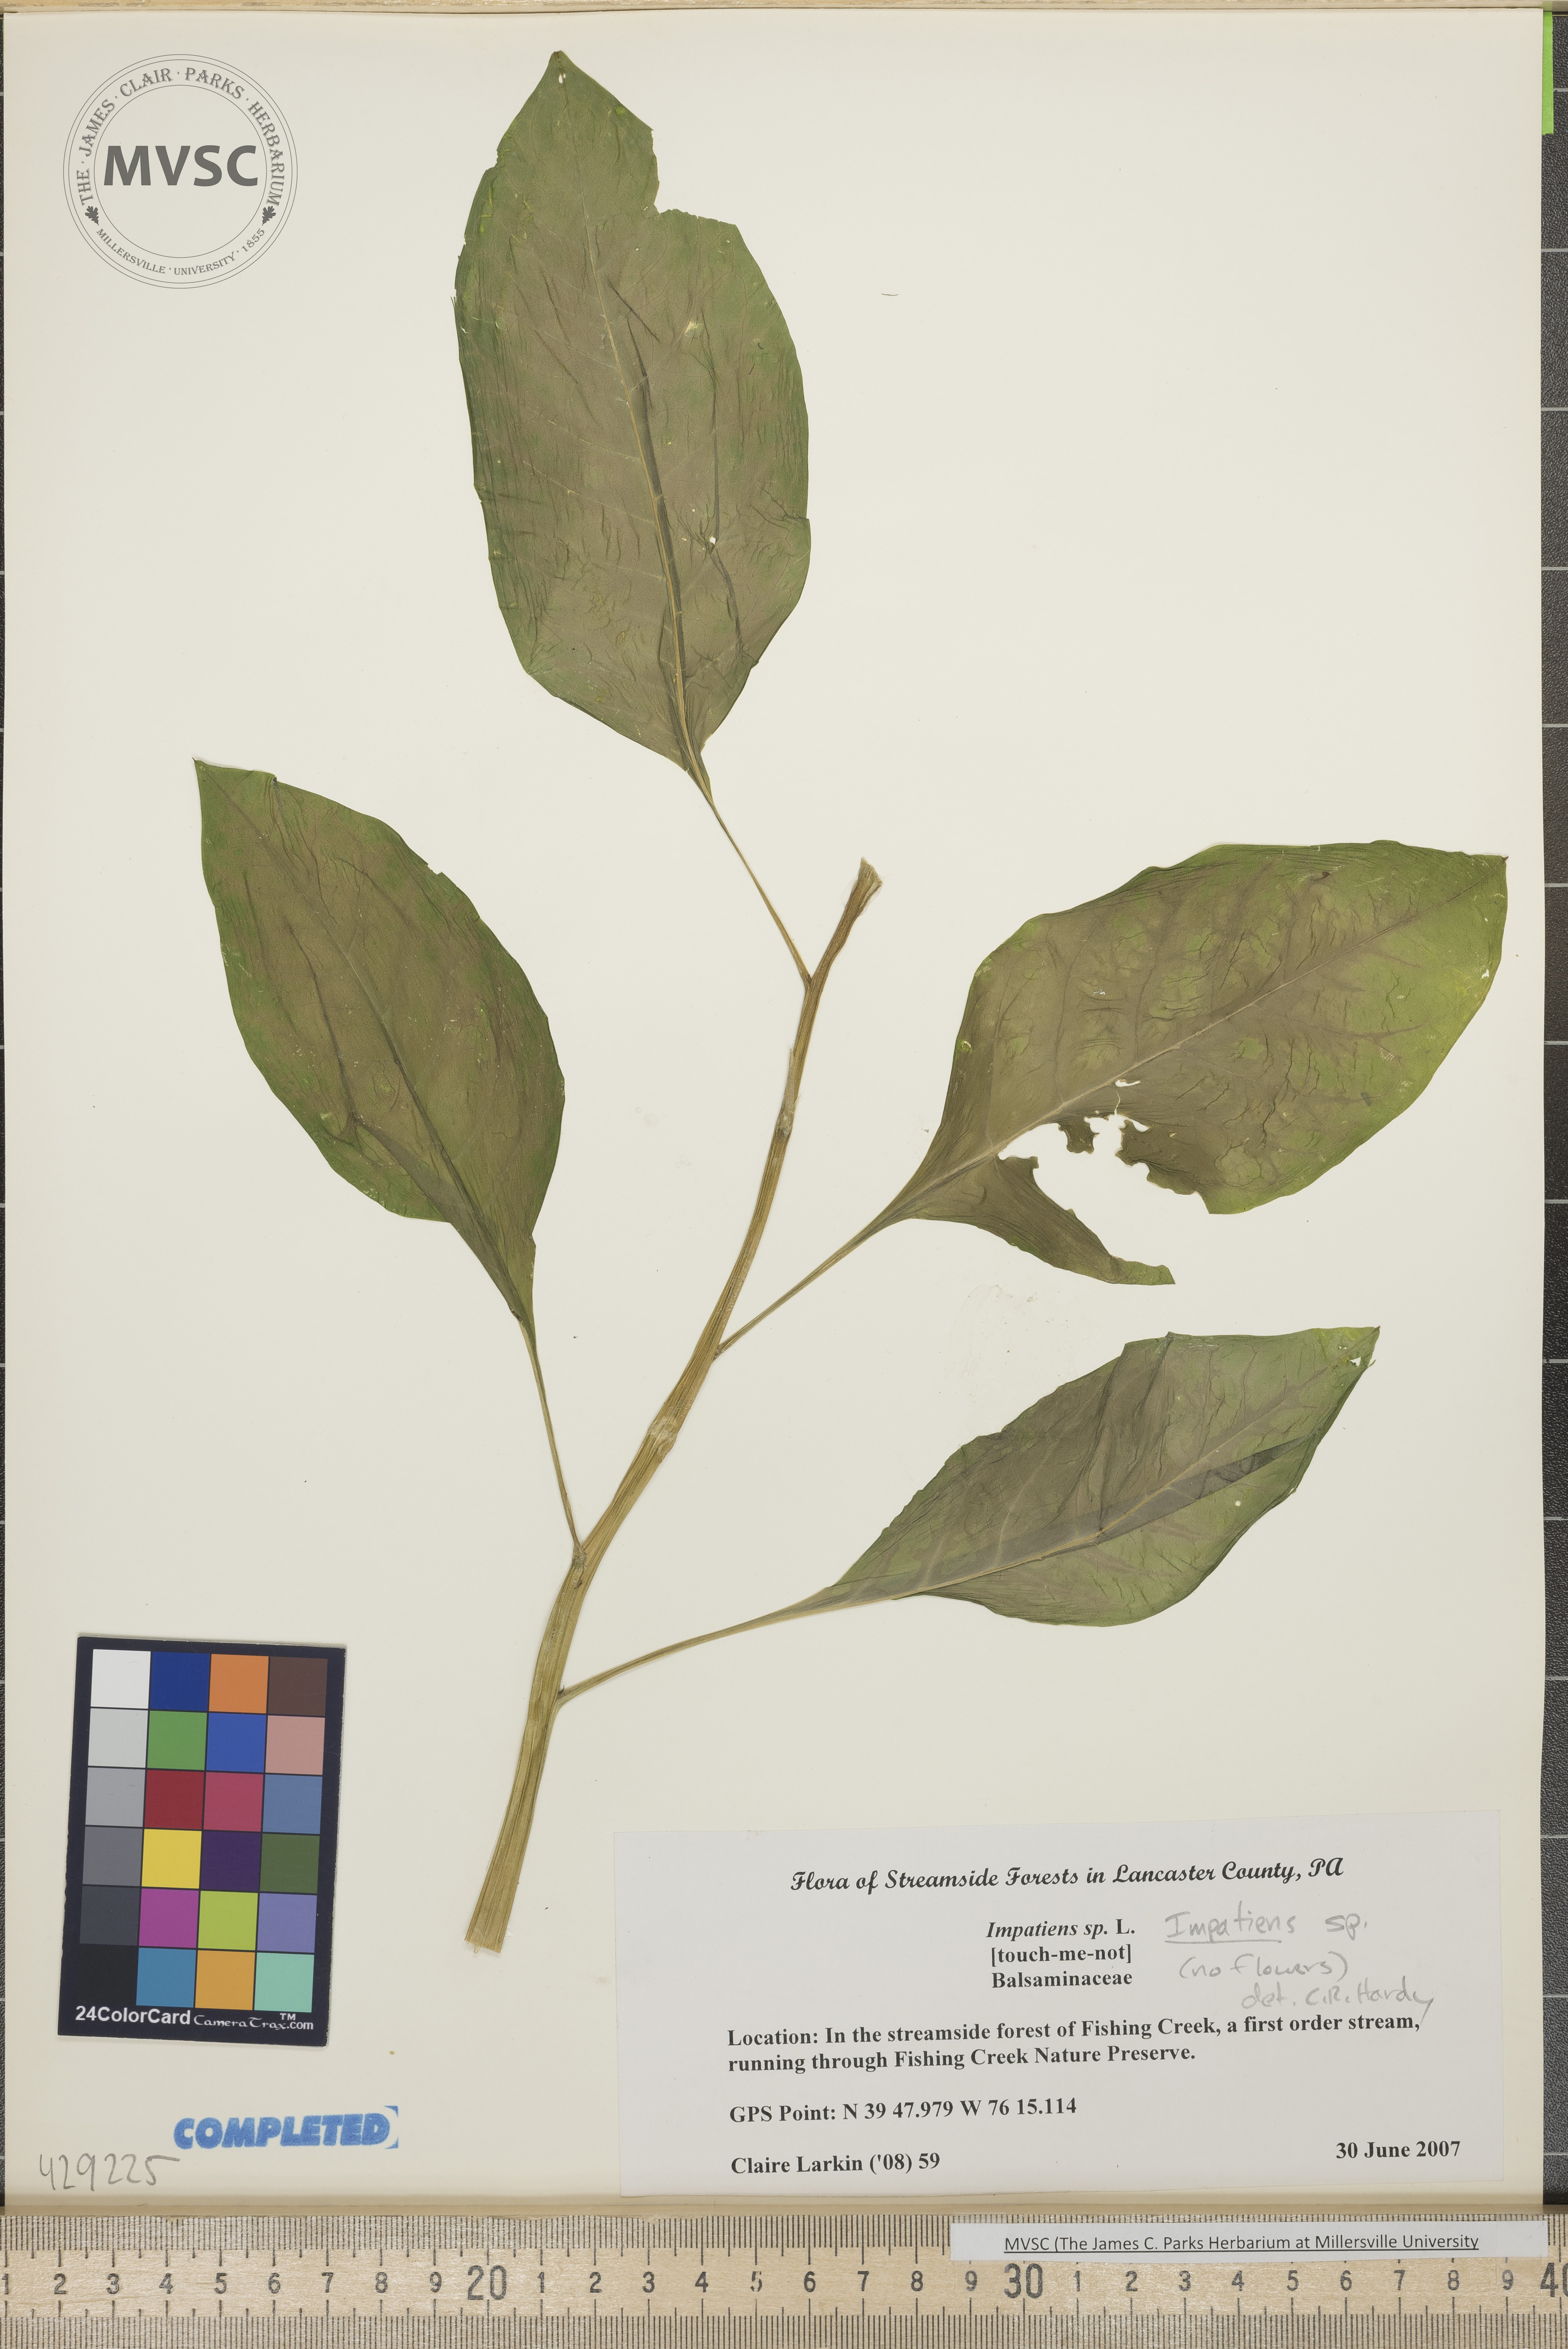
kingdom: Plantae
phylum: Tracheophyta
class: Magnoliopsida
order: Ericales
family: Balsaminaceae
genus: Impatiens
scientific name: Impatiens
